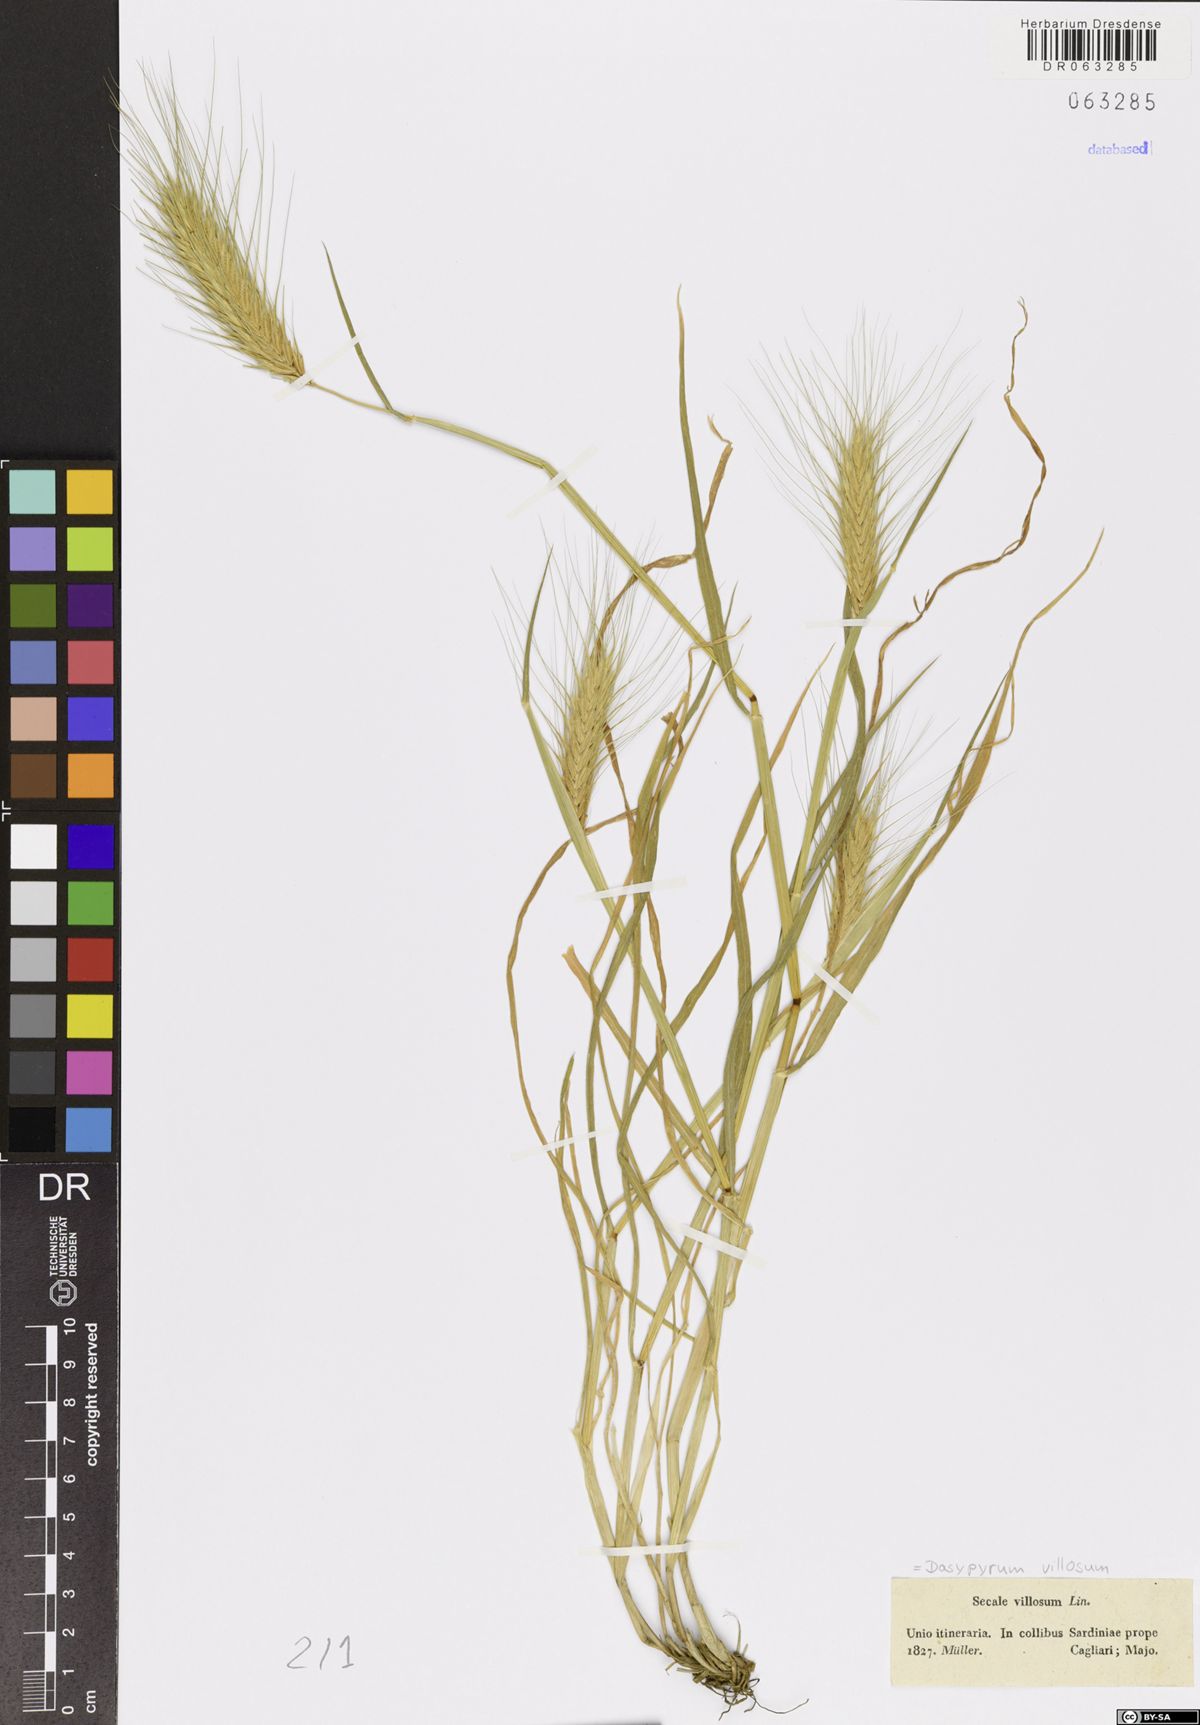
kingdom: Plantae
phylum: Tracheophyta
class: Liliopsida
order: Poales
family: Poaceae
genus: Dasypyrum
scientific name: Dasypyrum villosum
